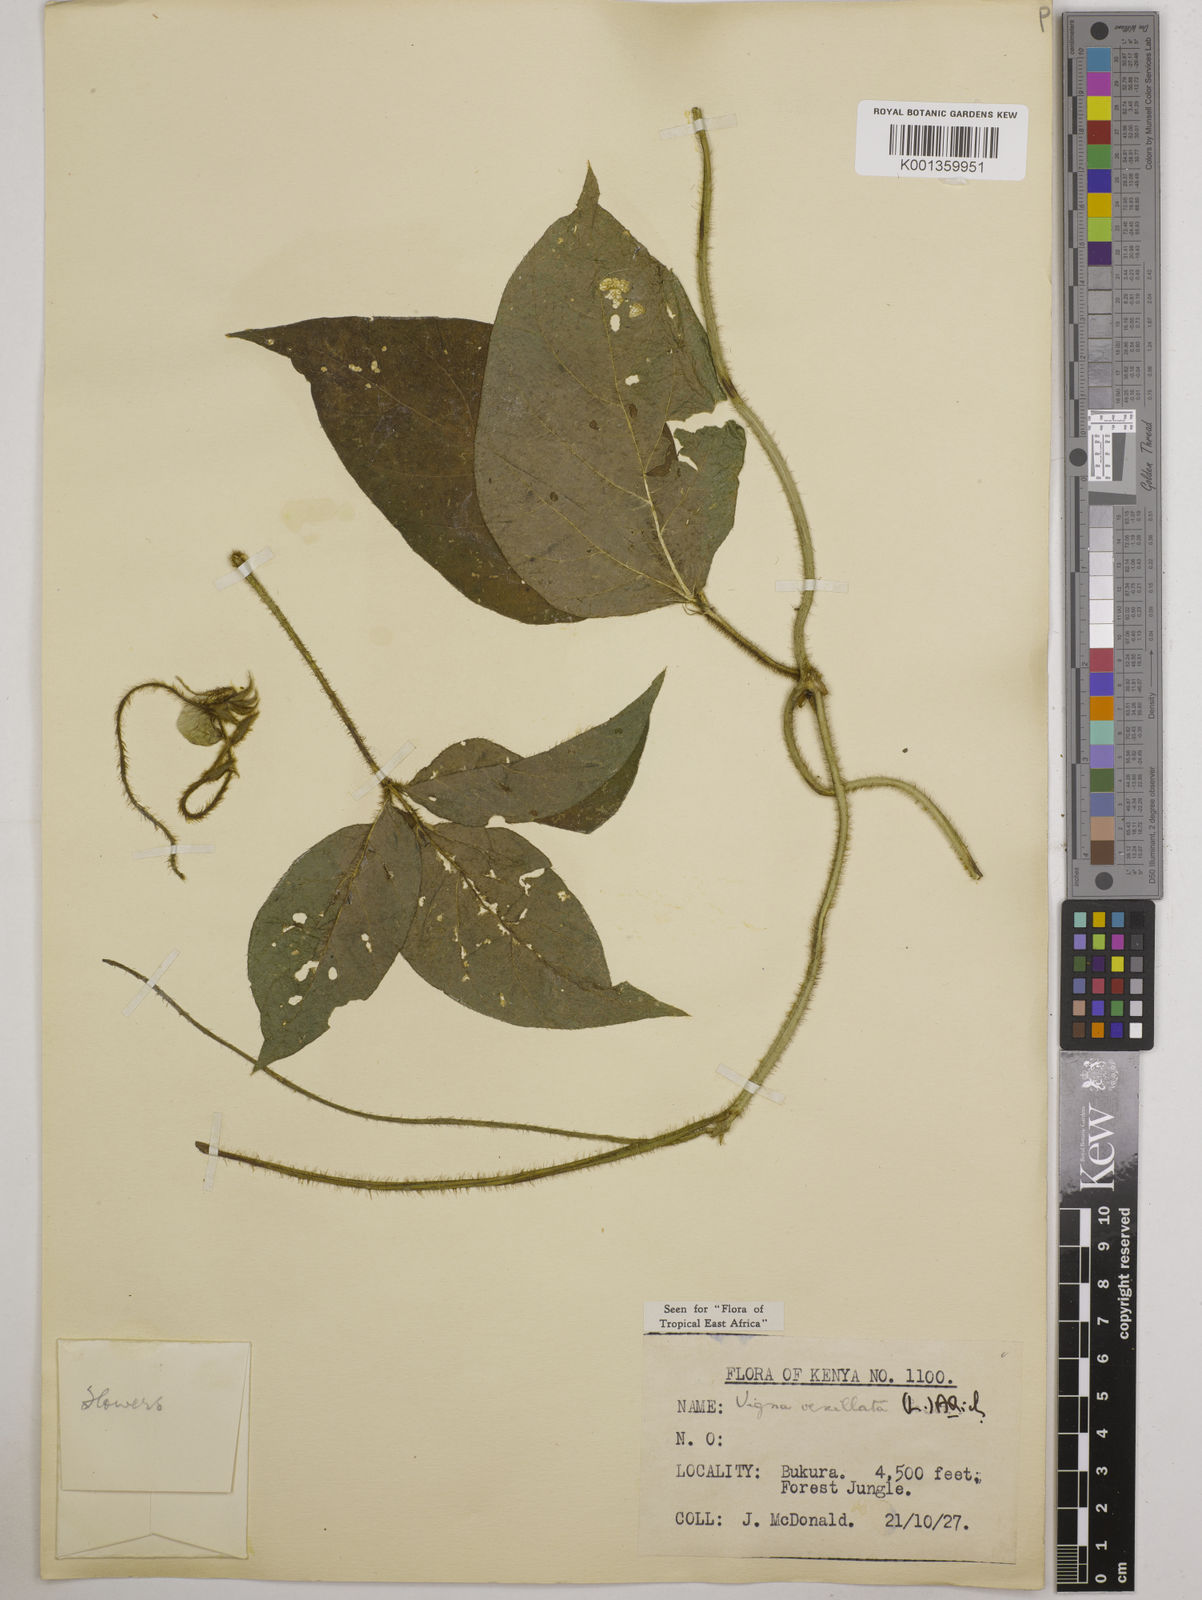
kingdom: Plantae
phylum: Tracheophyta
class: Magnoliopsida
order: Fabales
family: Fabaceae
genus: Vigna
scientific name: Vigna vexillata
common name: Zombi pea
